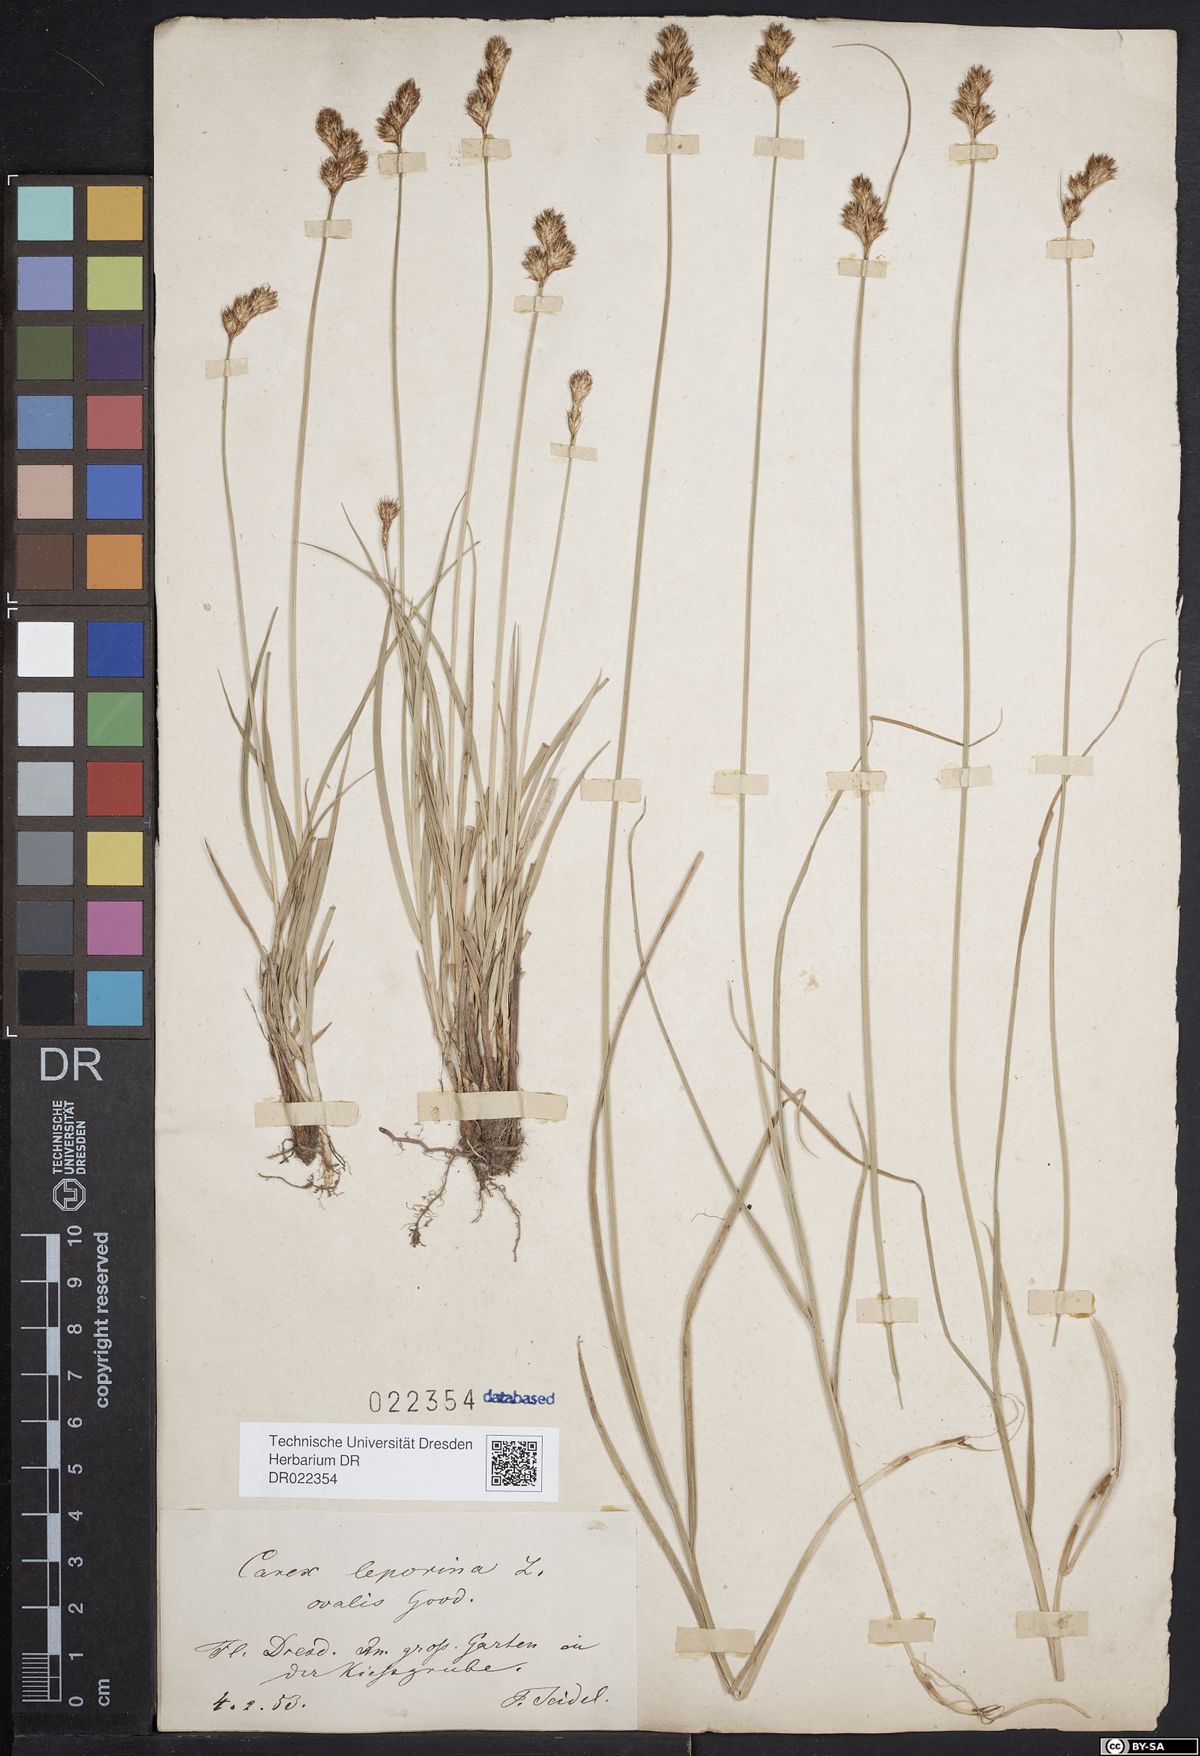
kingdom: Plantae
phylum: Tracheophyta
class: Liliopsida
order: Poales
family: Cyperaceae
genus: Carex
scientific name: Carex leporina
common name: Oval sedge
